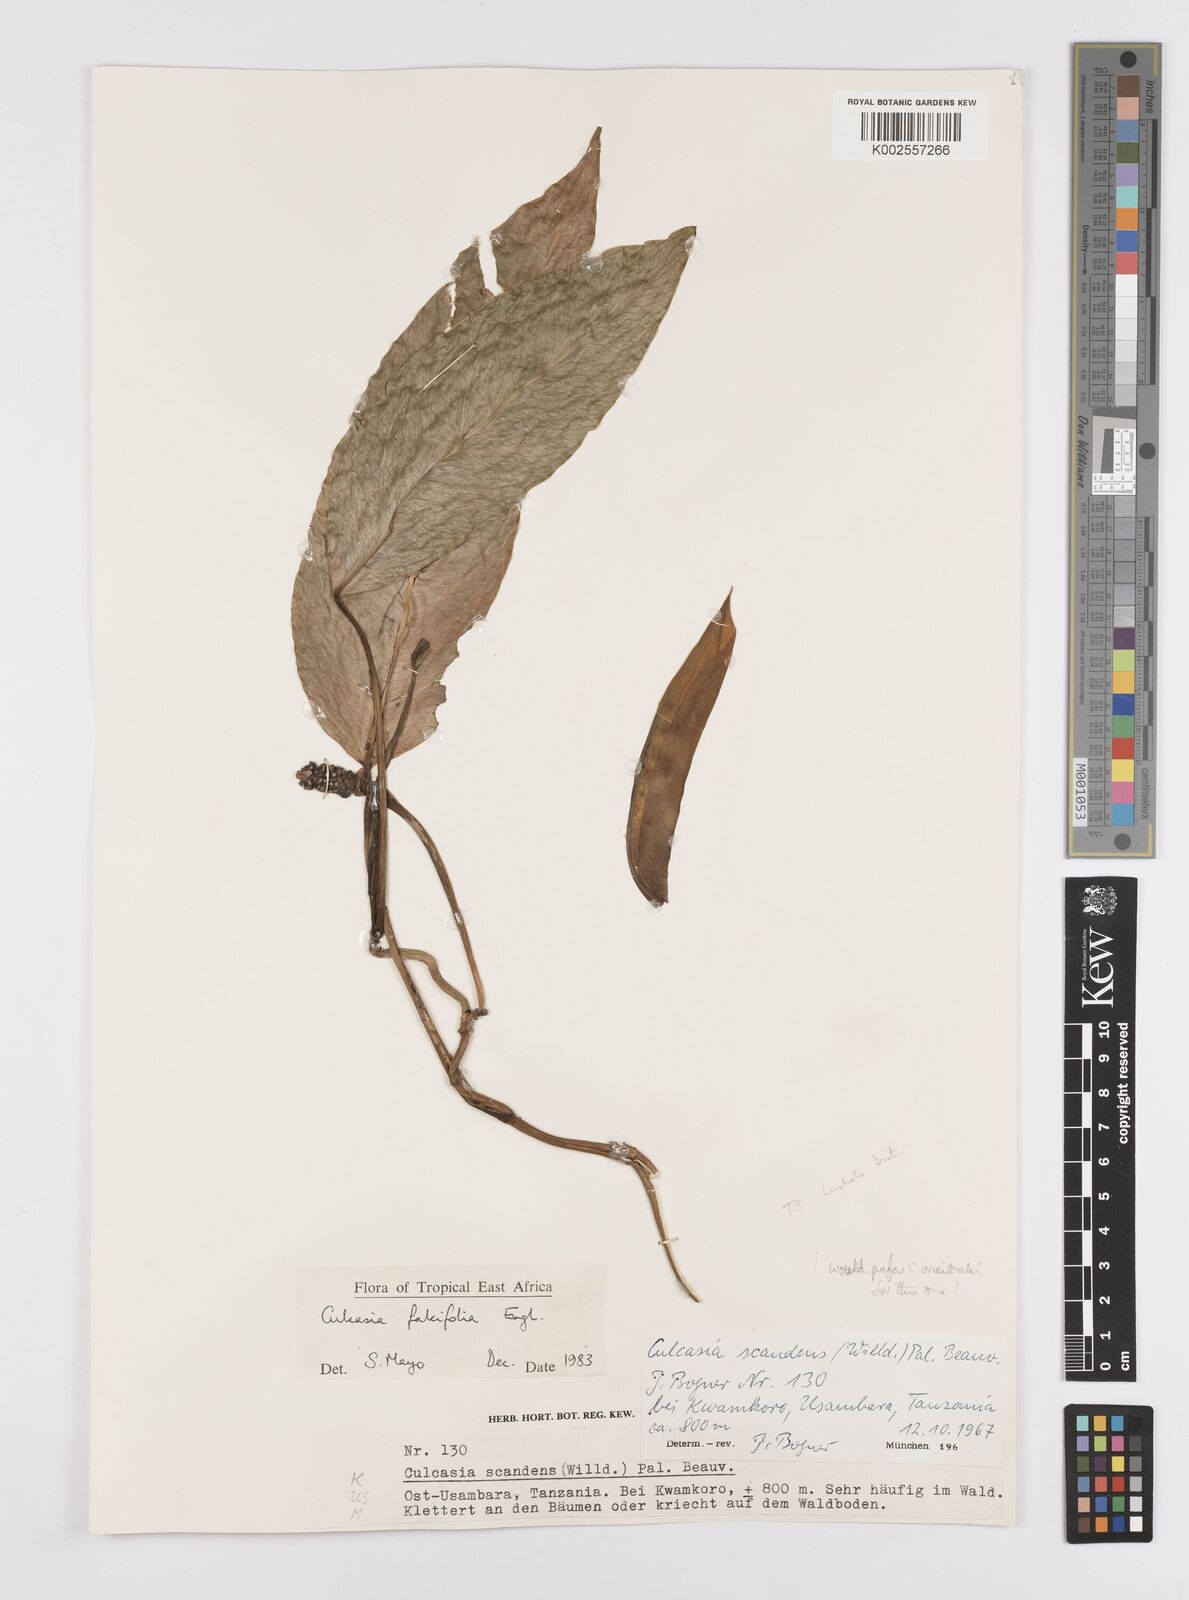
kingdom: Plantae
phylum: Tracheophyta
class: Liliopsida
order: Alismatales
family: Araceae
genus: Culcasia
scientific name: Culcasia falcifolia
